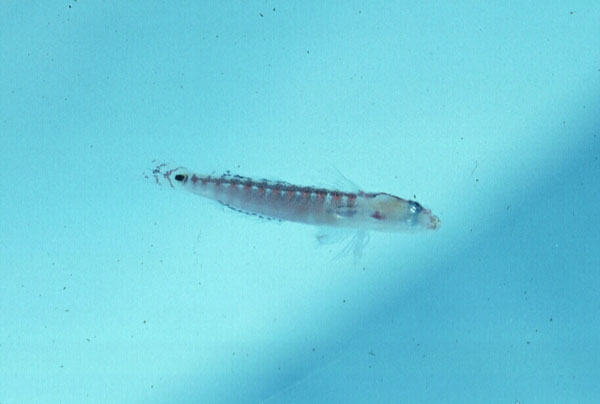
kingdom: Animalia
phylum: Chordata
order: Perciformes
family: Xenisthmidae
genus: Xenisthmus
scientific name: Xenisthmus africanus
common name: Flathead wriggler
